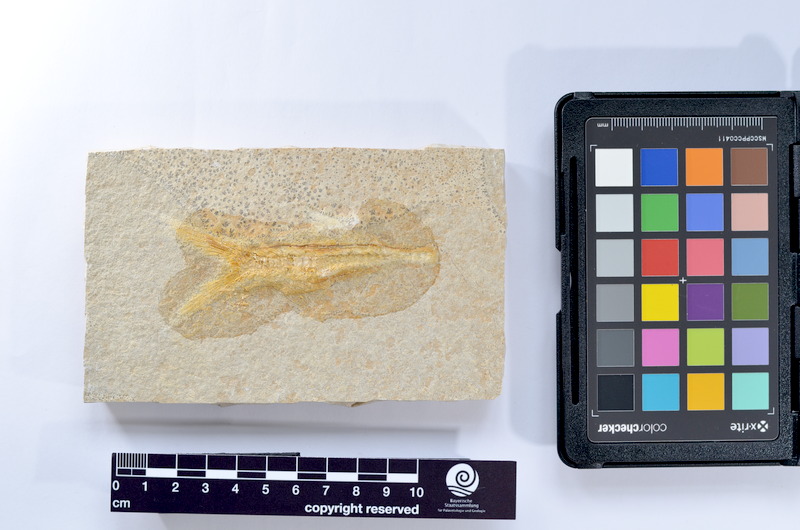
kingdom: Animalia
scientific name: Animalia
